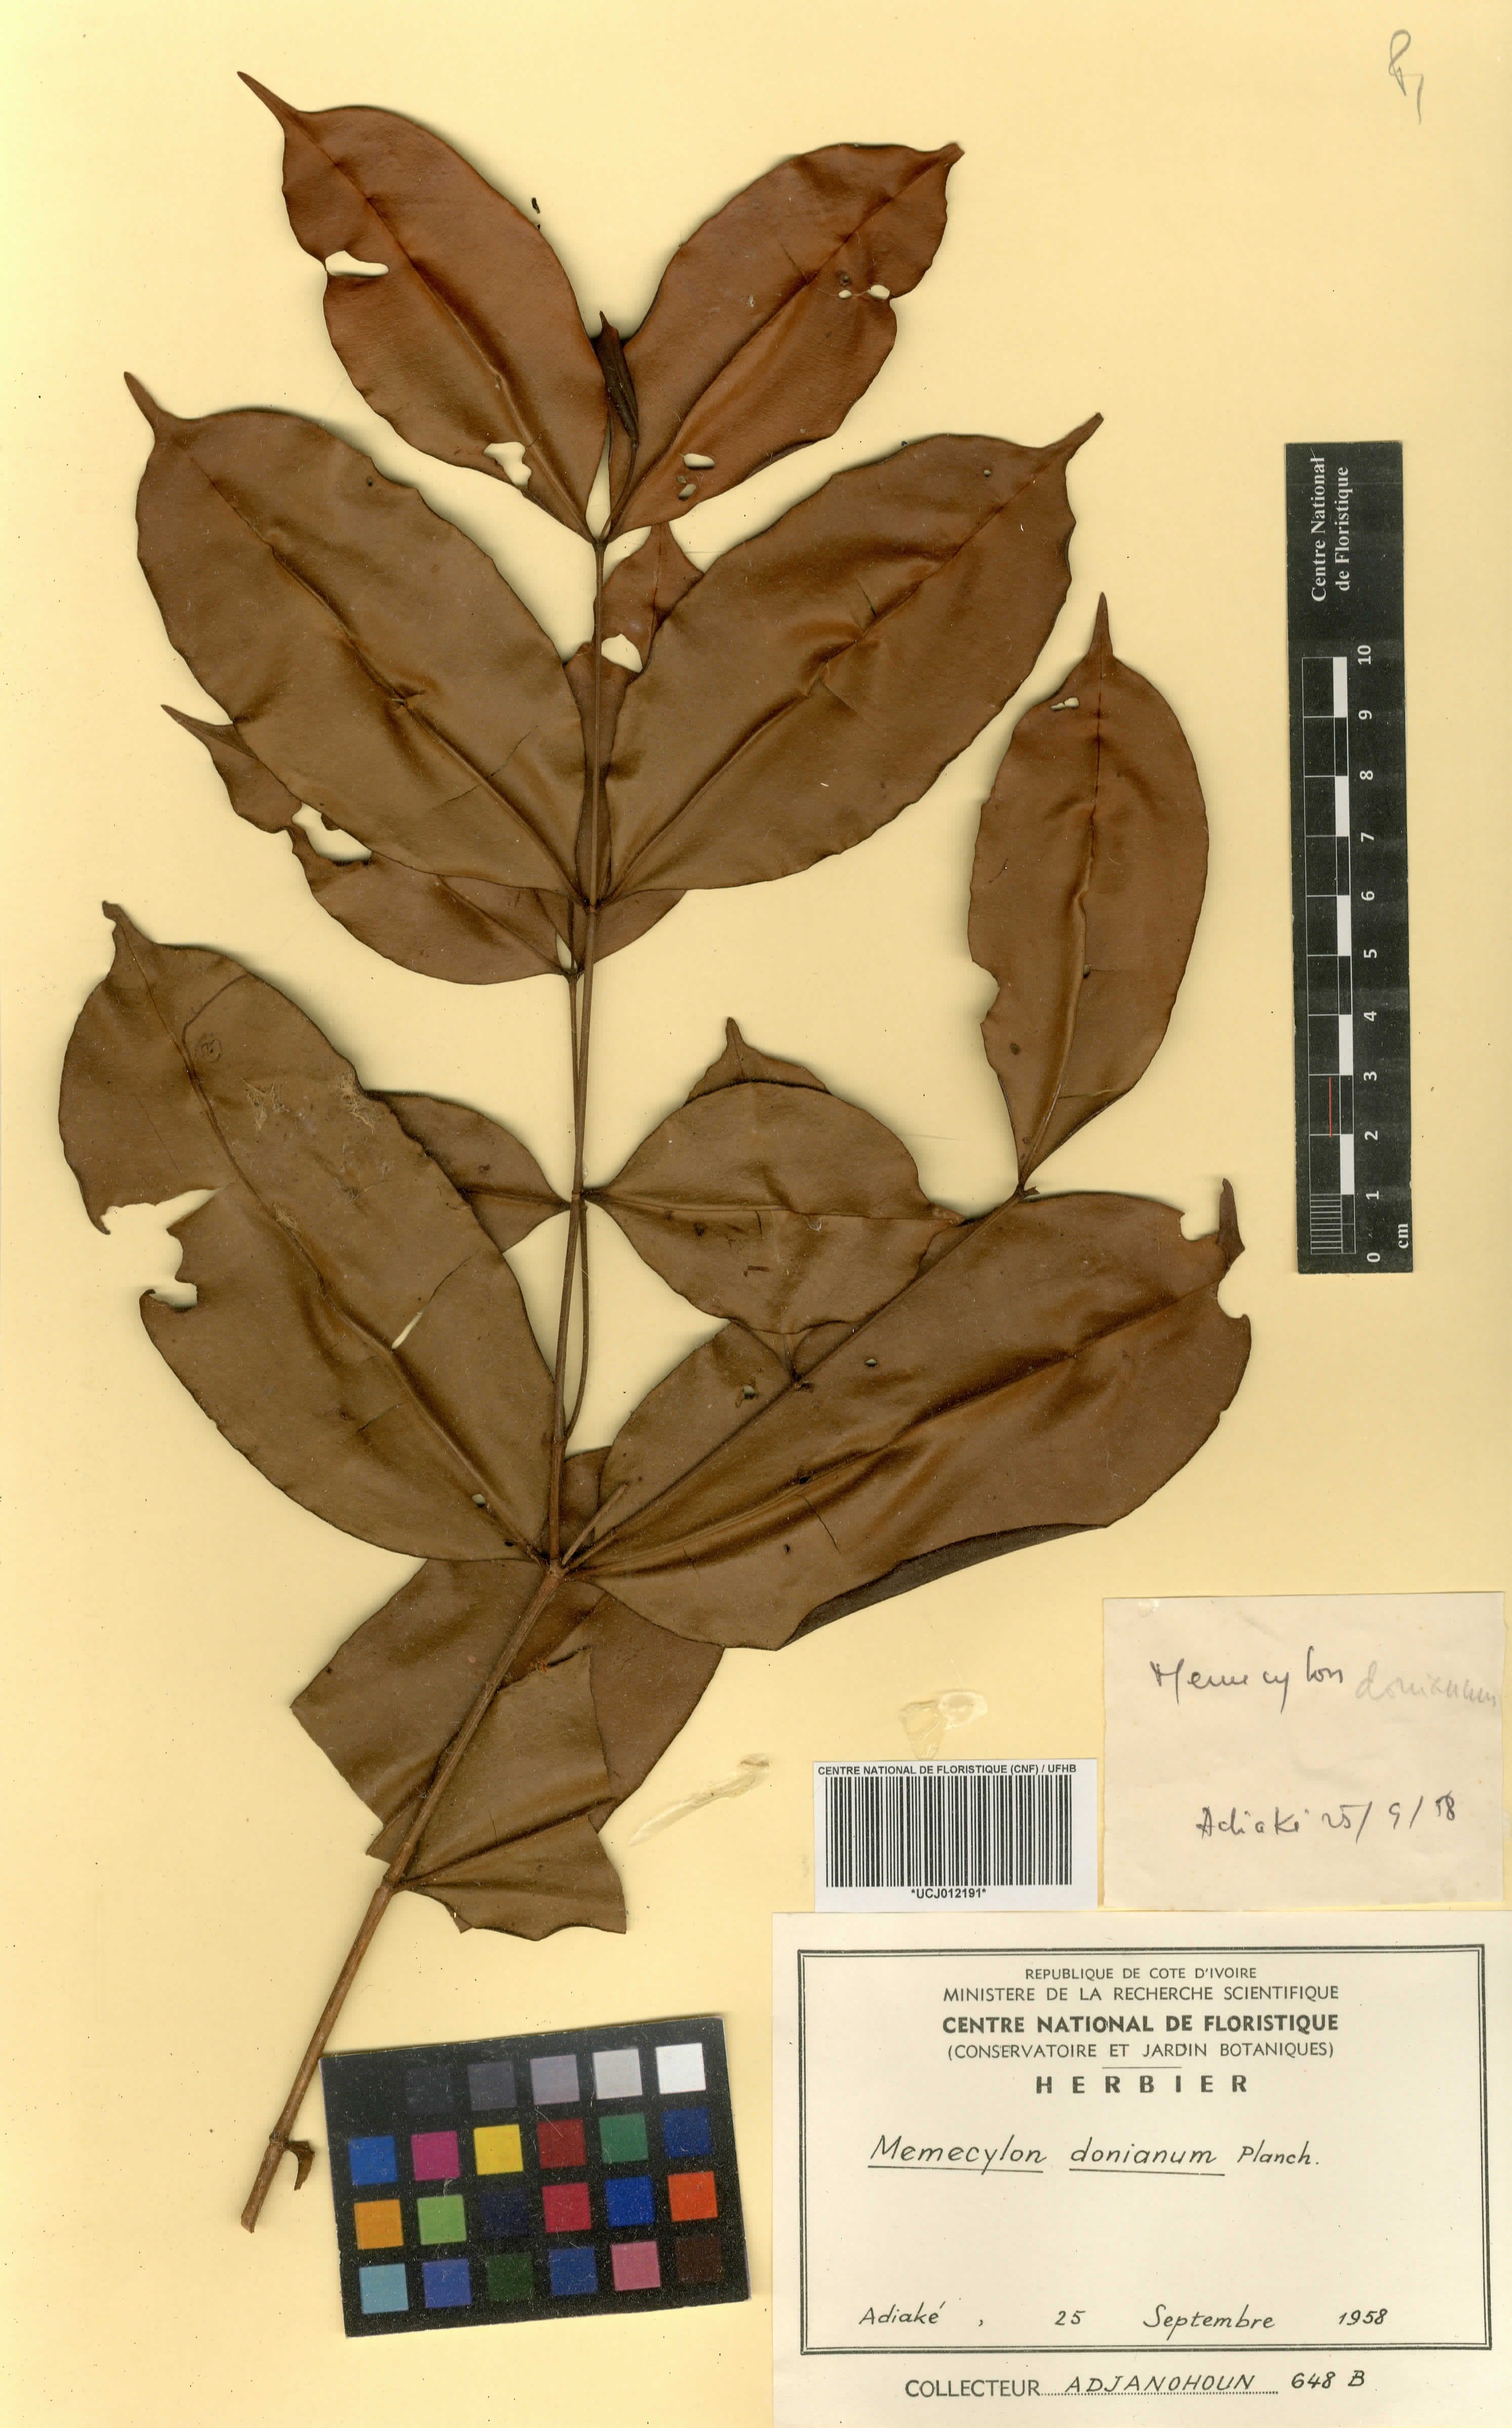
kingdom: Plantae
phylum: Tracheophyta
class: Magnoliopsida
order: Myrtales
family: Melastomataceae
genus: Memecylon
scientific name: Memecylon lateriflorum
